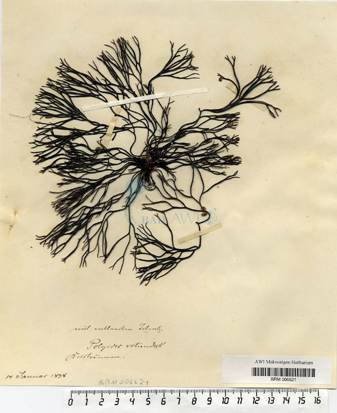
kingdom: Plantae
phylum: Rhodophyta
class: Florideophyceae
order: Gigartinales
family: Polyidaceae
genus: Polyides
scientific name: Polyides rotunda
